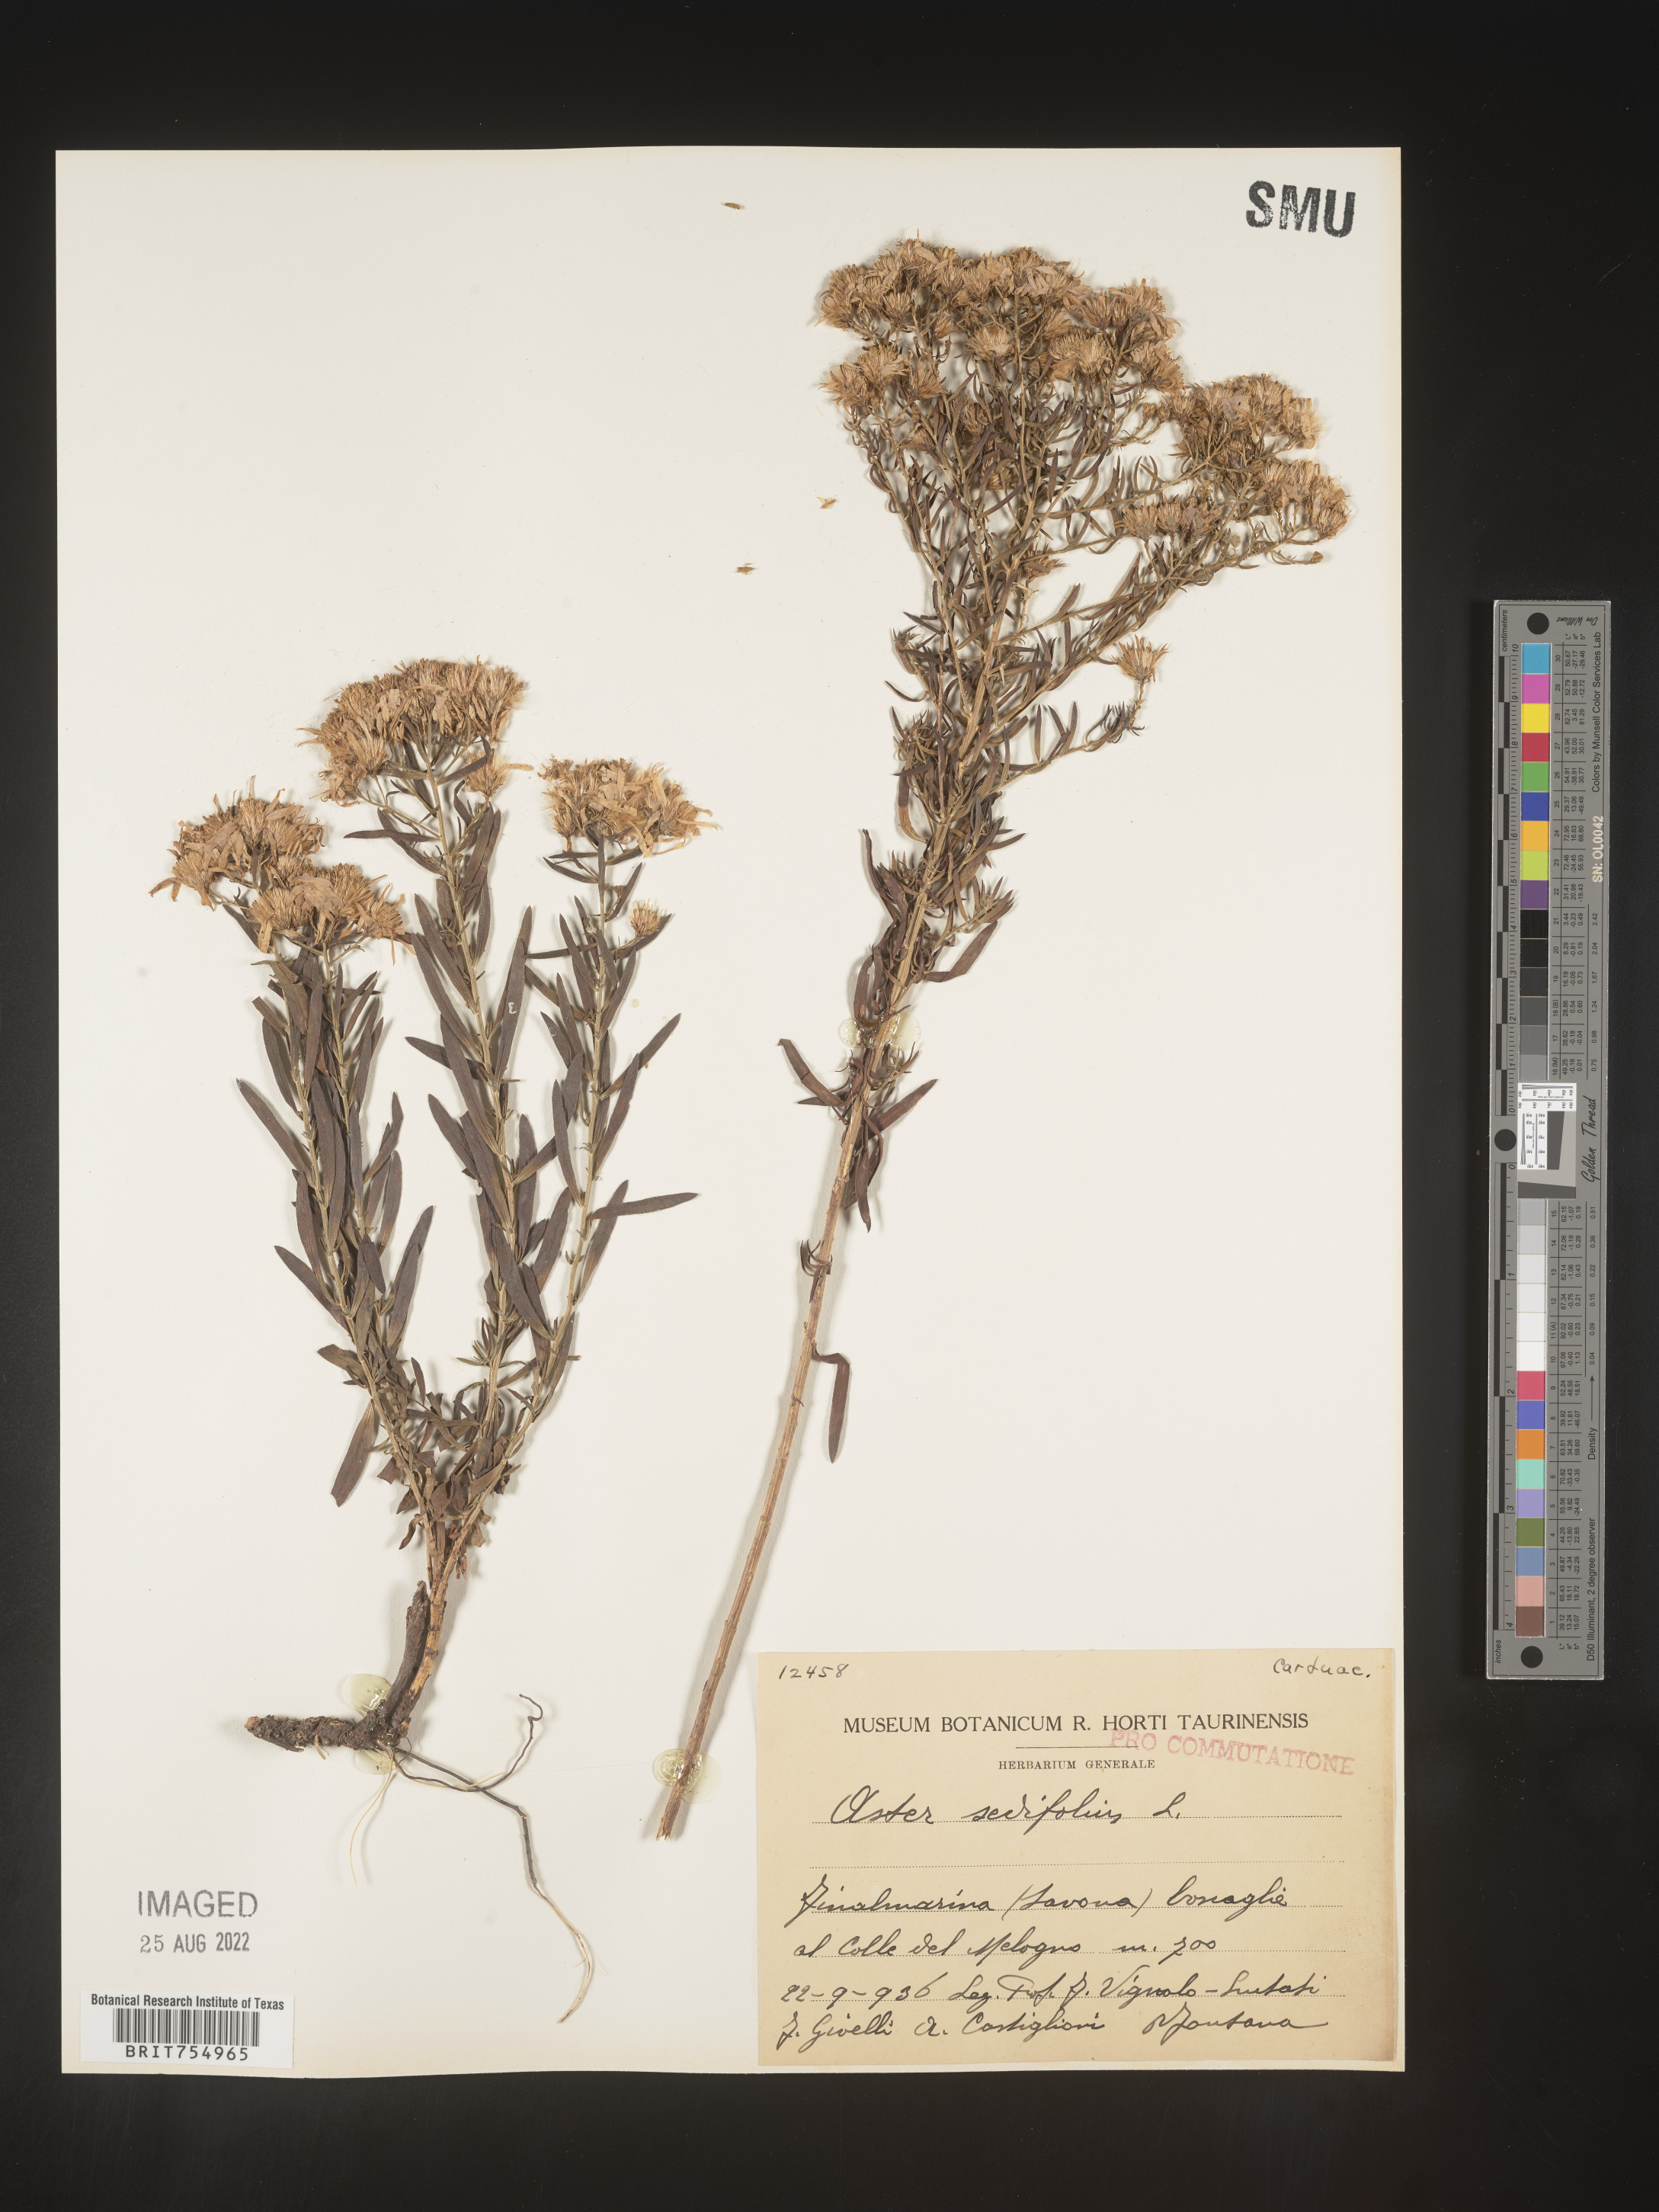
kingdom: Plantae
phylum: Tracheophyta
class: Magnoliopsida
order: Asterales
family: Asteraceae
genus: Symphyotrichum
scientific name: Symphyotrichum
